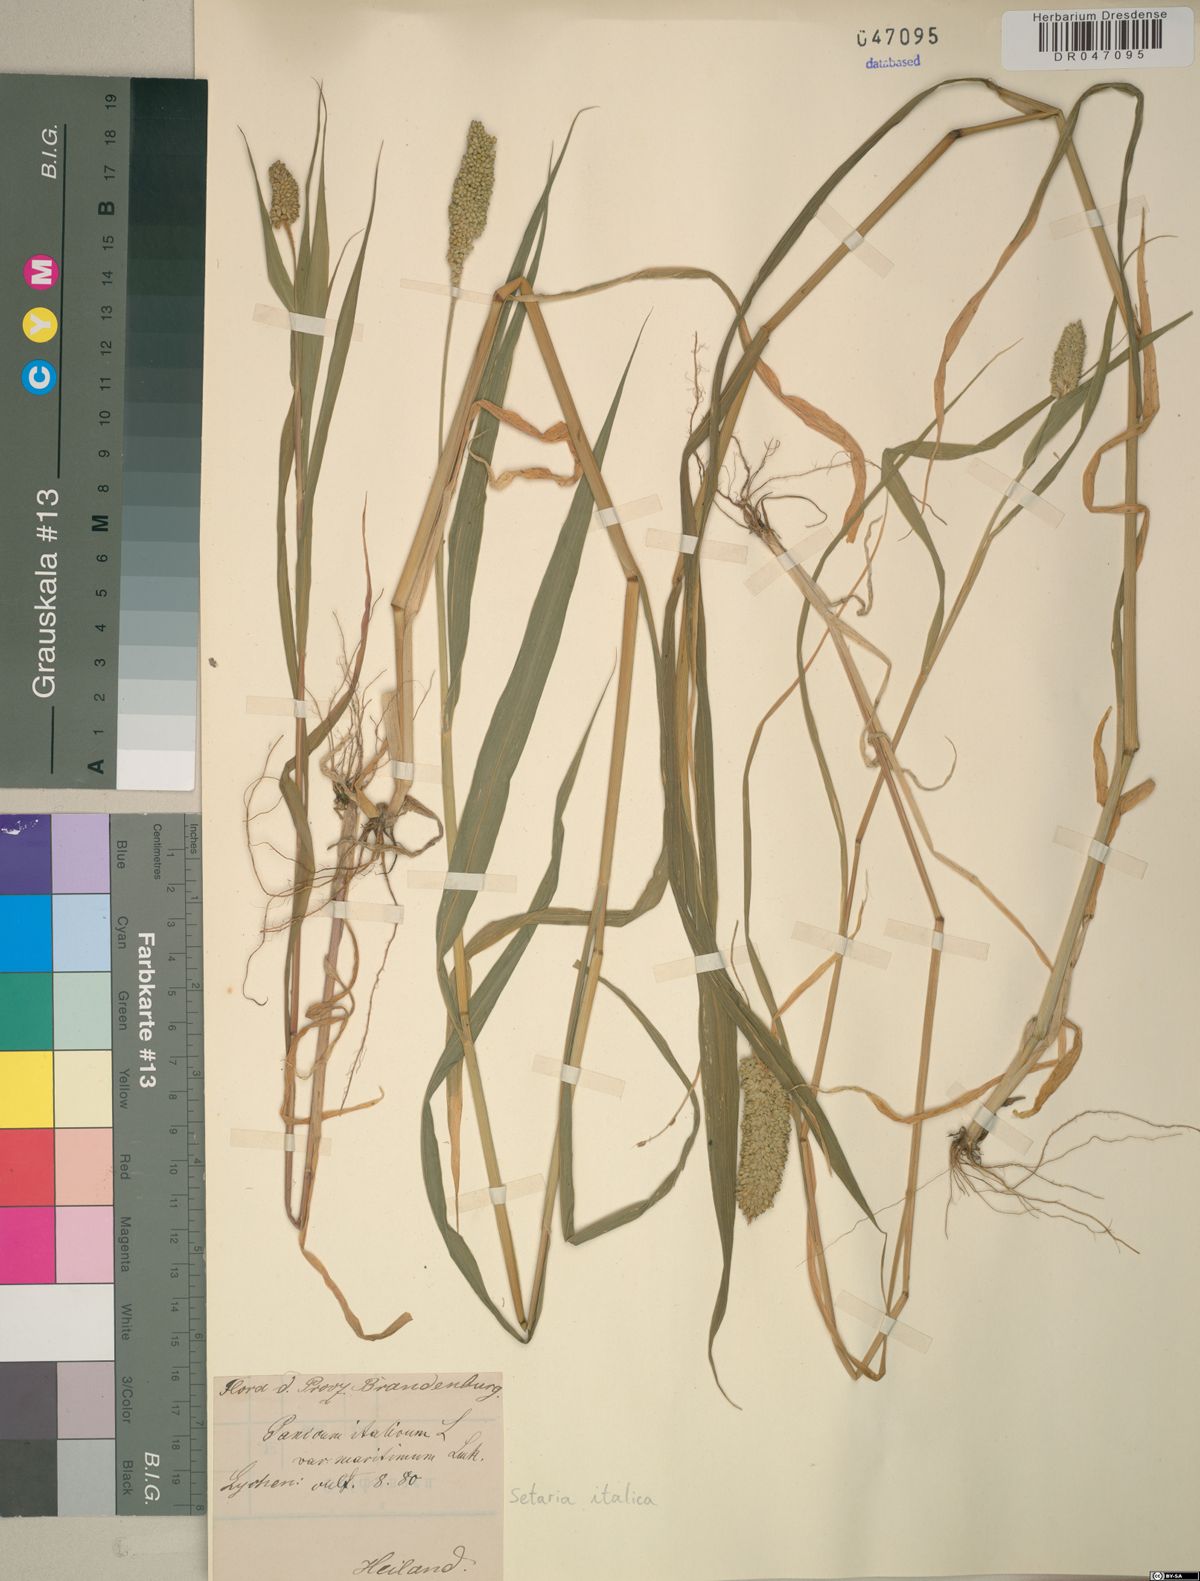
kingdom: Plantae
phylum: Tracheophyta
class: Liliopsida
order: Poales
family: Poaceae
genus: Setaria
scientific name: Setaria italica
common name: Foxtail bristle-grass
